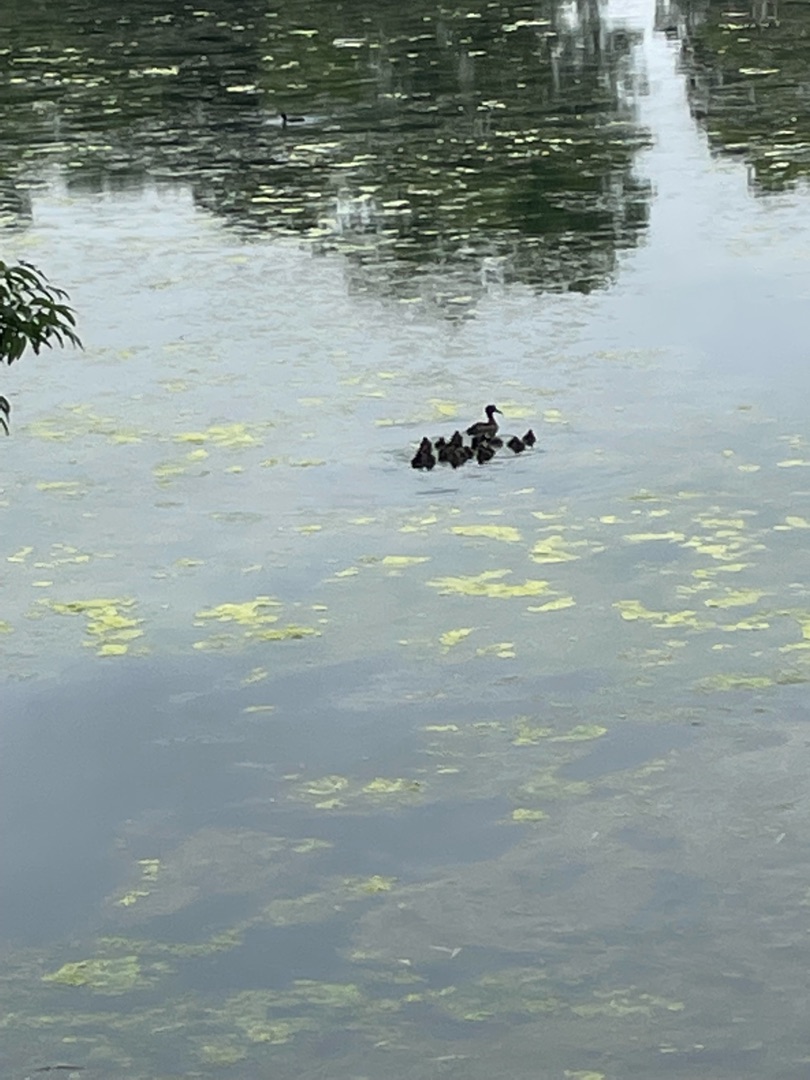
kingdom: Animalia
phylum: Chordata
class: Aves
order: Anseriformes
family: Anatidae
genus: Aythya
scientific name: Aythya fuligula
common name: Troldand
